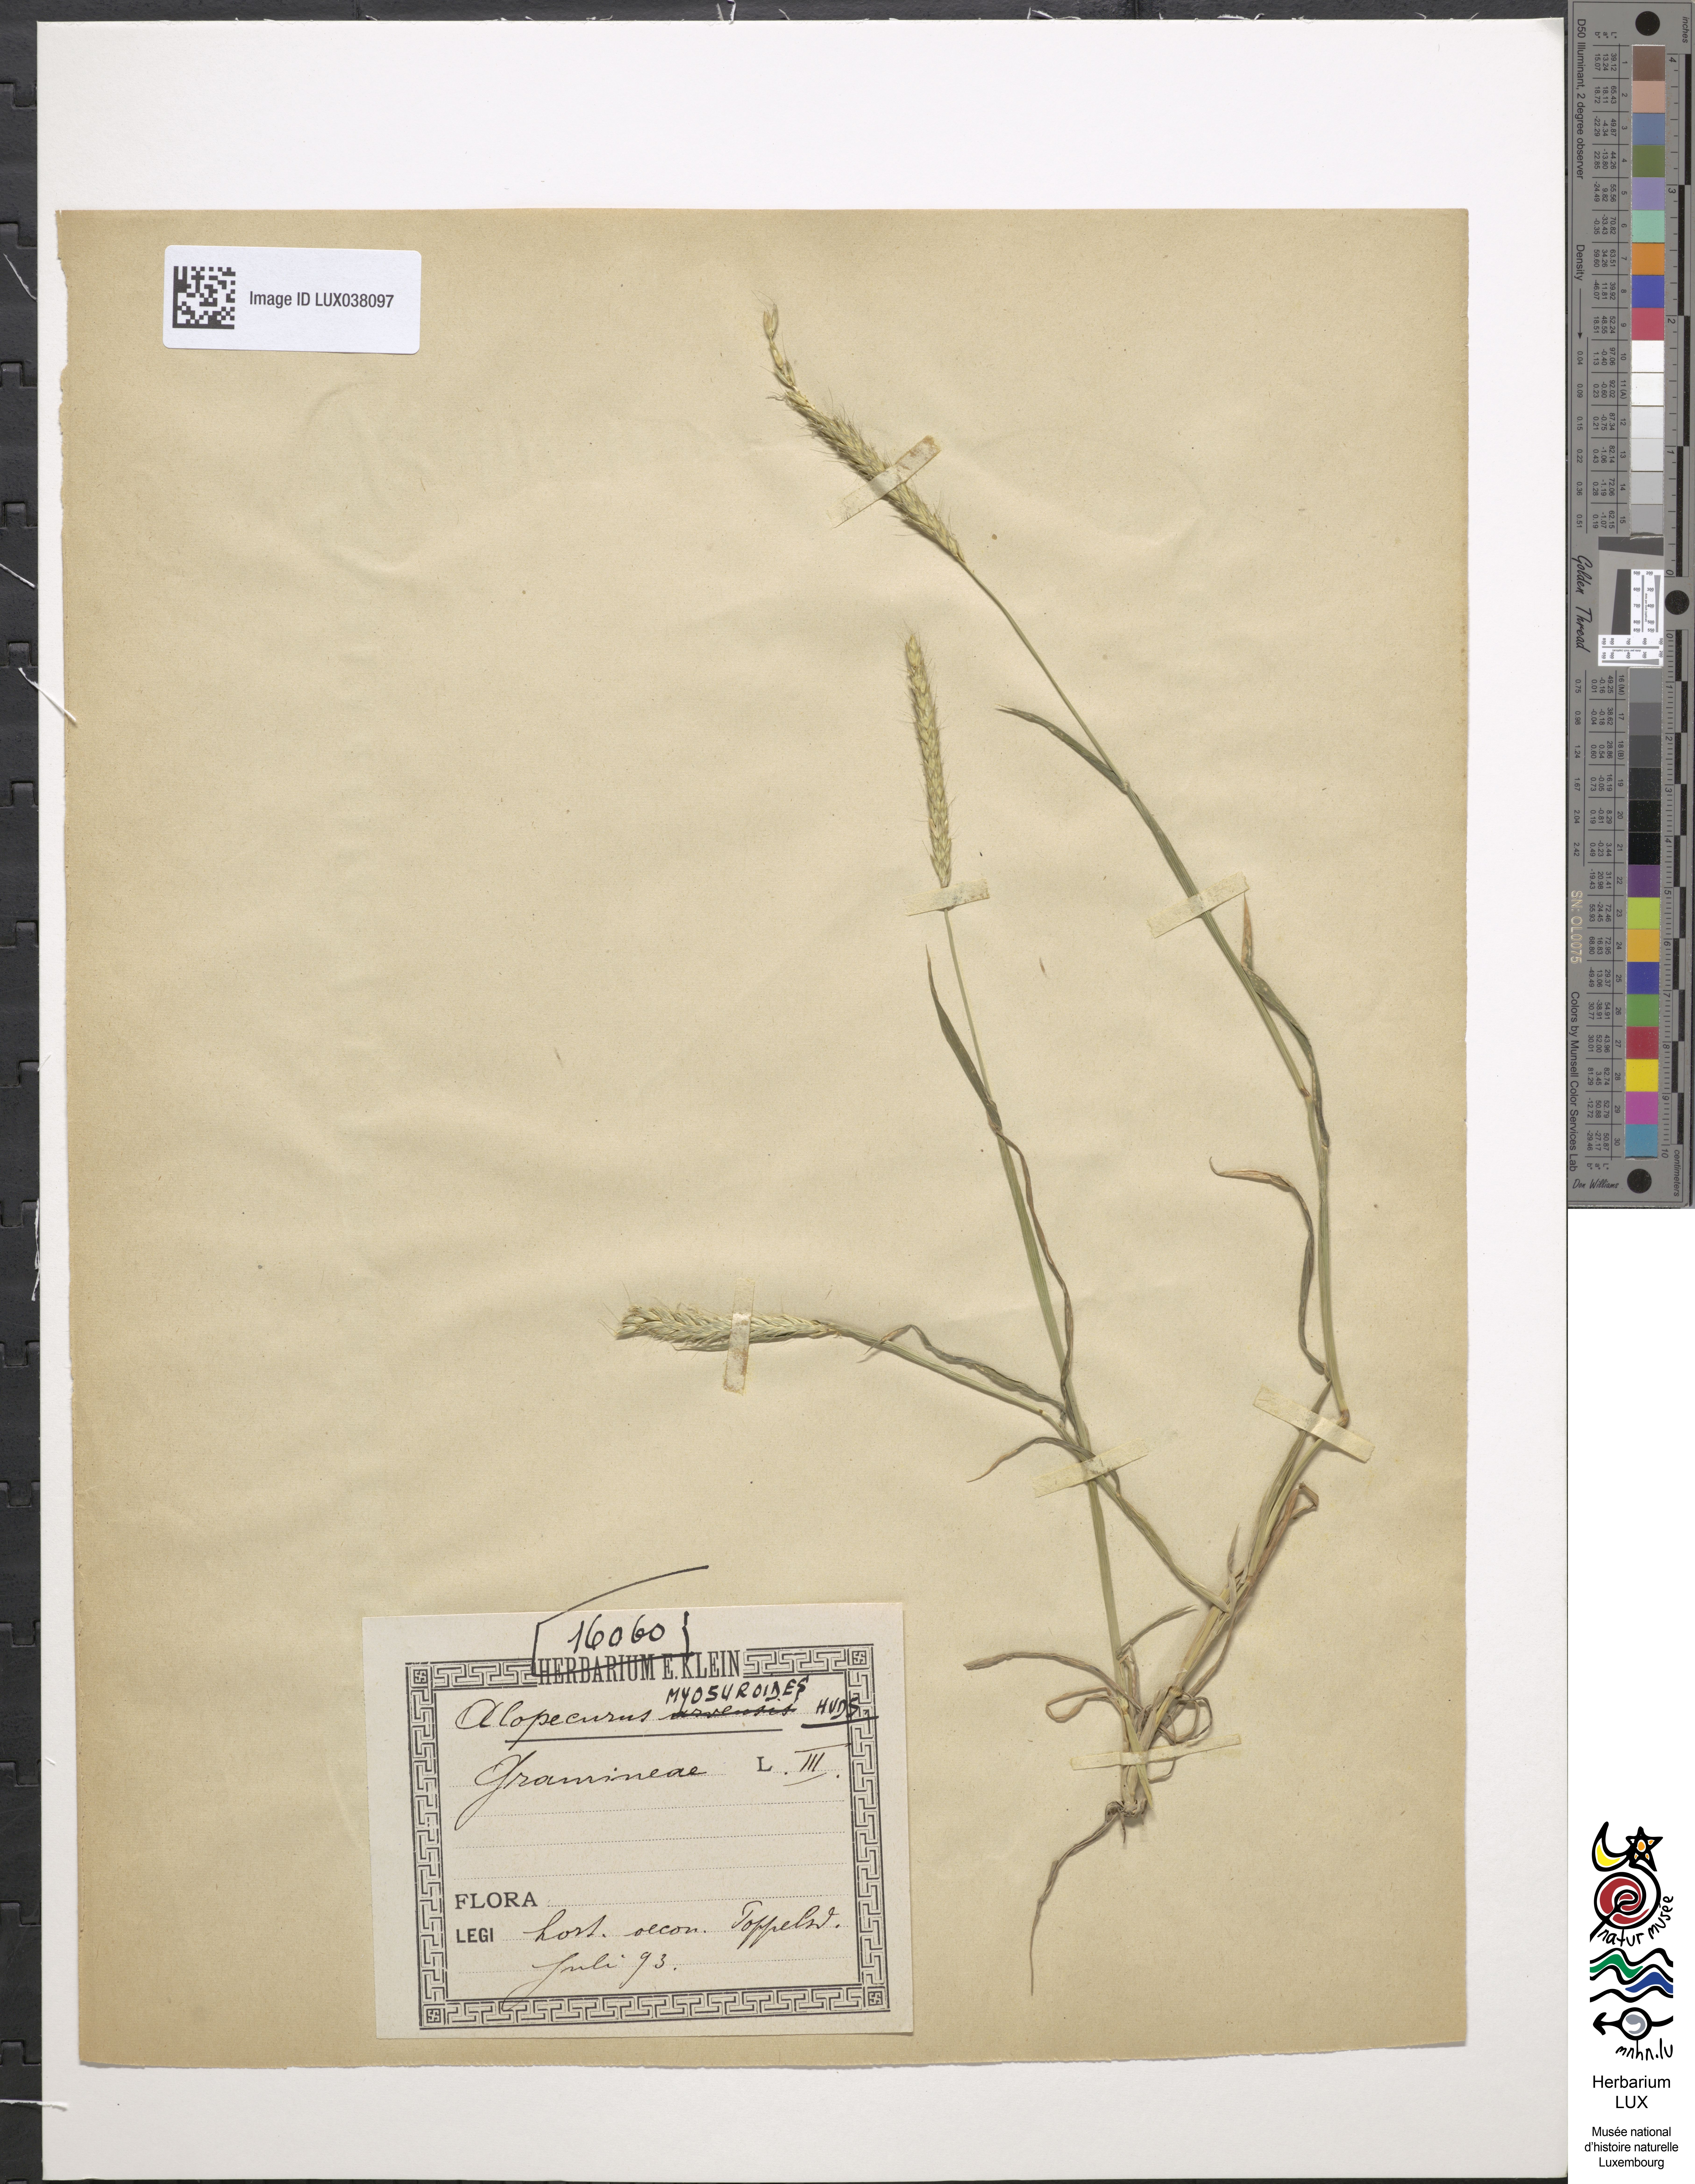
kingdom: Plantae
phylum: Tracheophyta
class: Liliopsida
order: Poales
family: Poaceae
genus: Alopecurus
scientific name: Alopecurus myosuroides
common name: Black-grass
